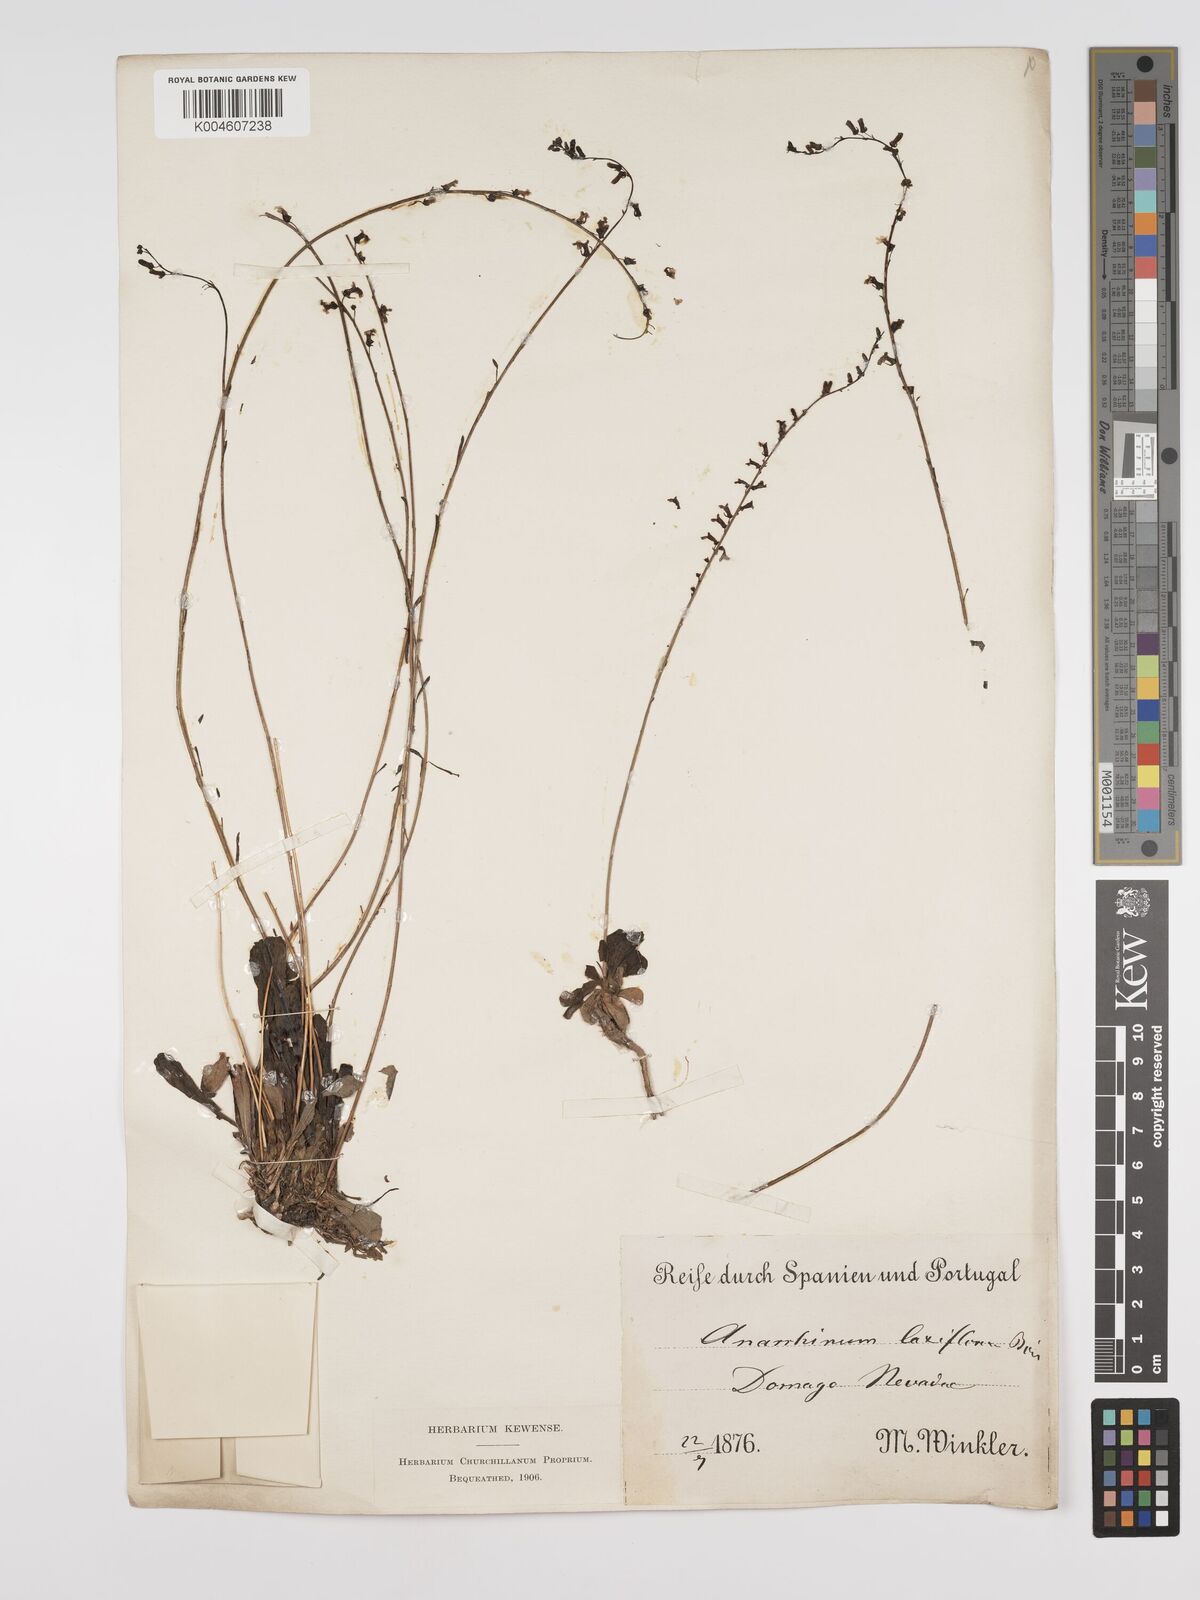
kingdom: Plantae
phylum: Tracheophyta
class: Magnoliopsida
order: Lamiales
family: Plantaginaceae
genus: Anarrhinum
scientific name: Anarrhinum laxiflorum
